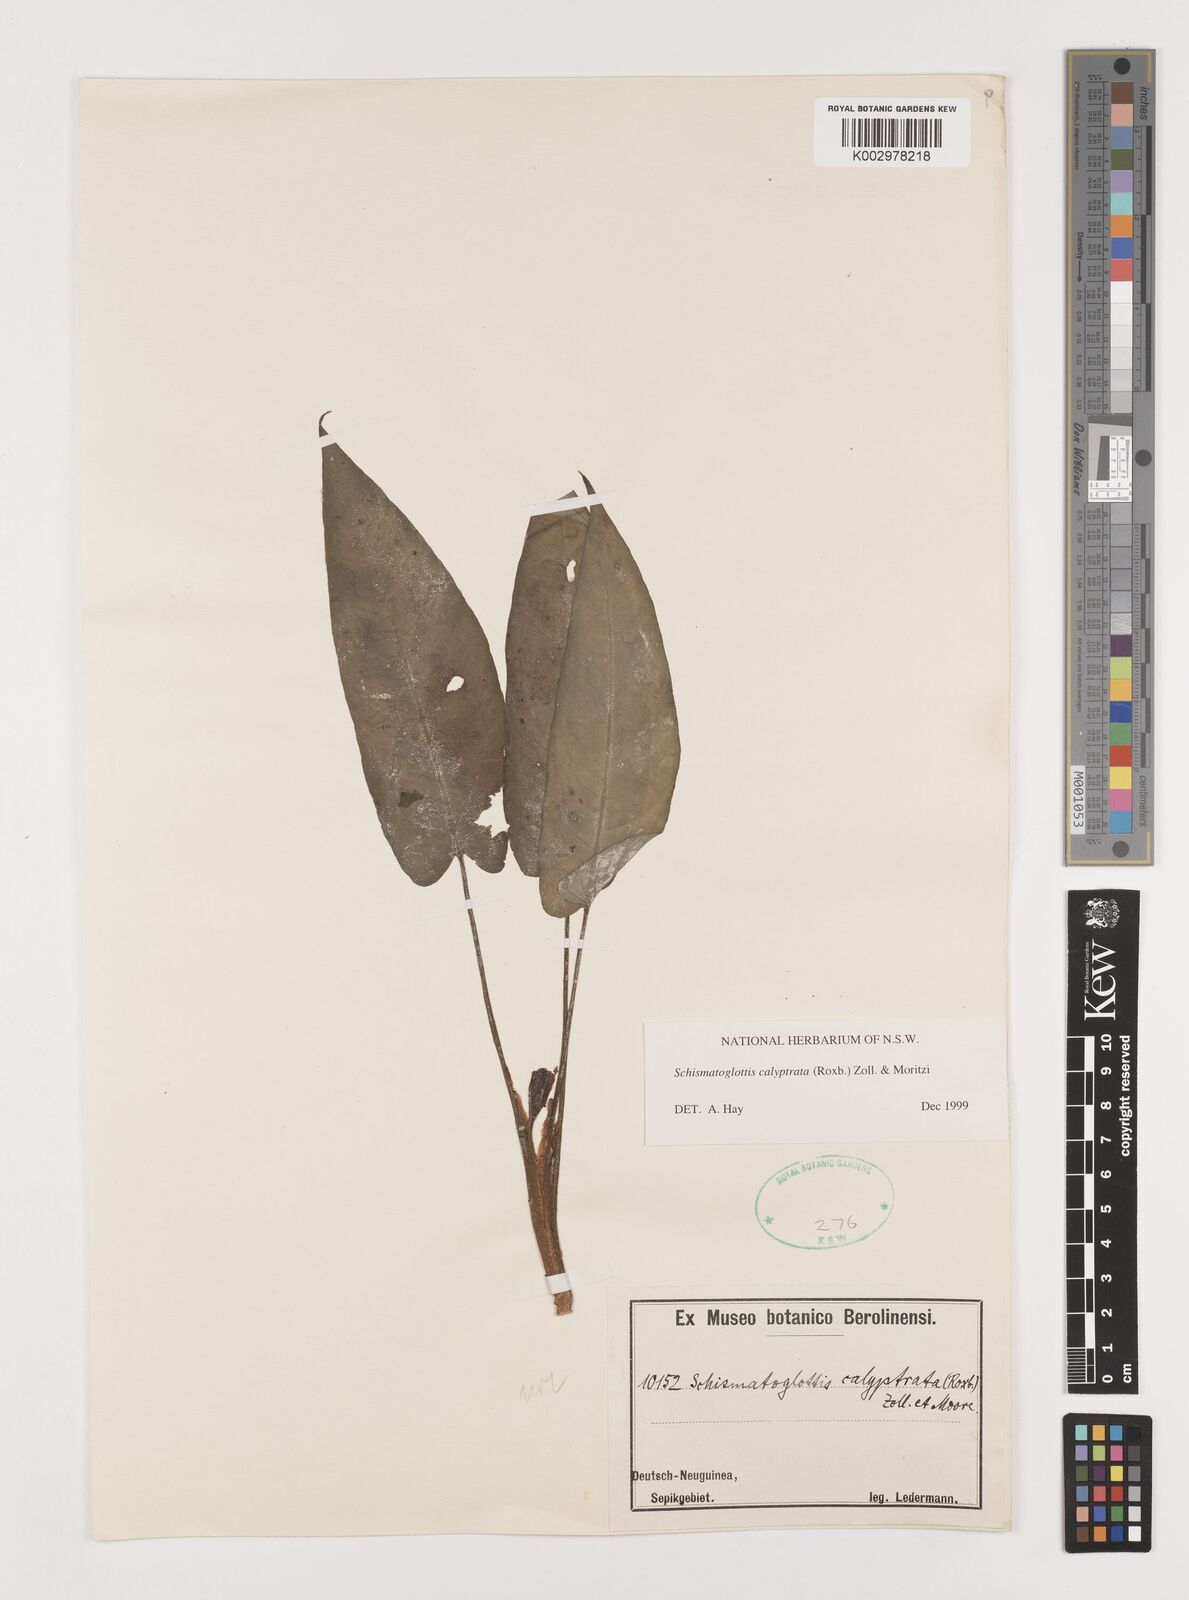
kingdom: Plantae
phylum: Tracheophyta
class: Liliopsida
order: Alismatales
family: Araceae
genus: Schismatoglottis
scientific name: Schismatoglottis calyptrata
